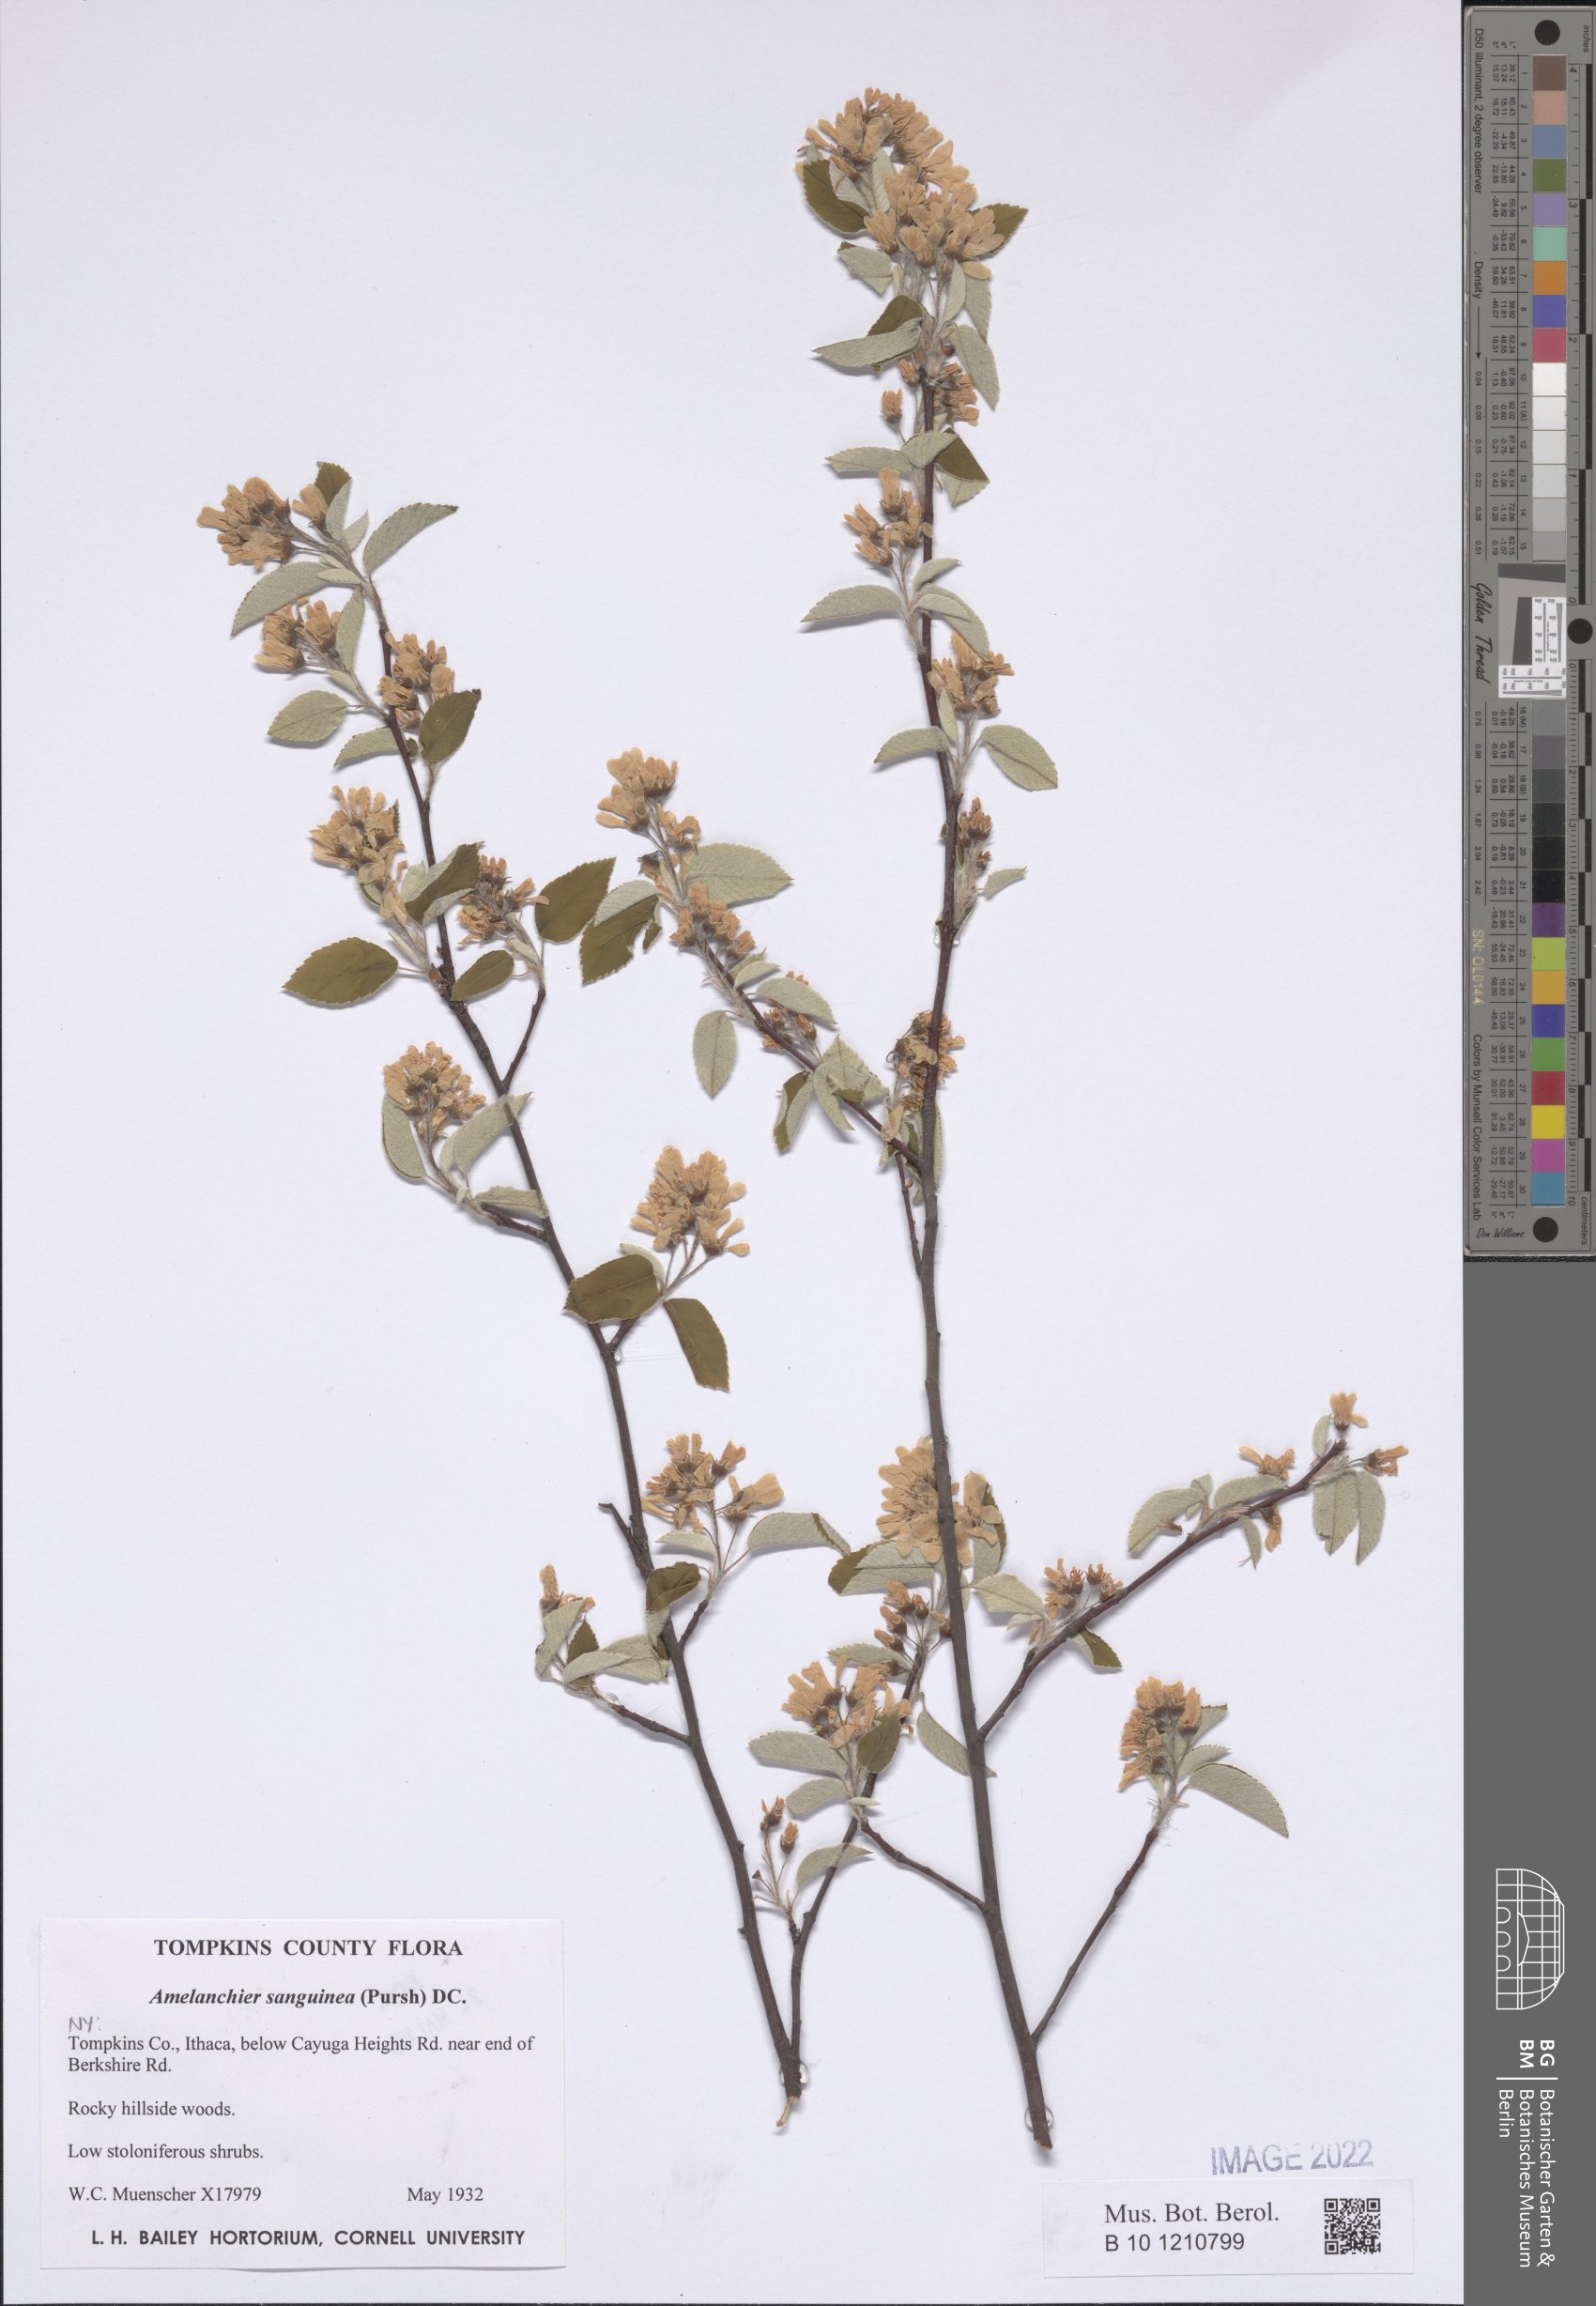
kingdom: Plantae
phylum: Tracheophyta
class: Magnoliopsida
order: Rosales
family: Rosaceae
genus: Amelanchier
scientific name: Amelanchier sanguinea
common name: Huron serviceberry
